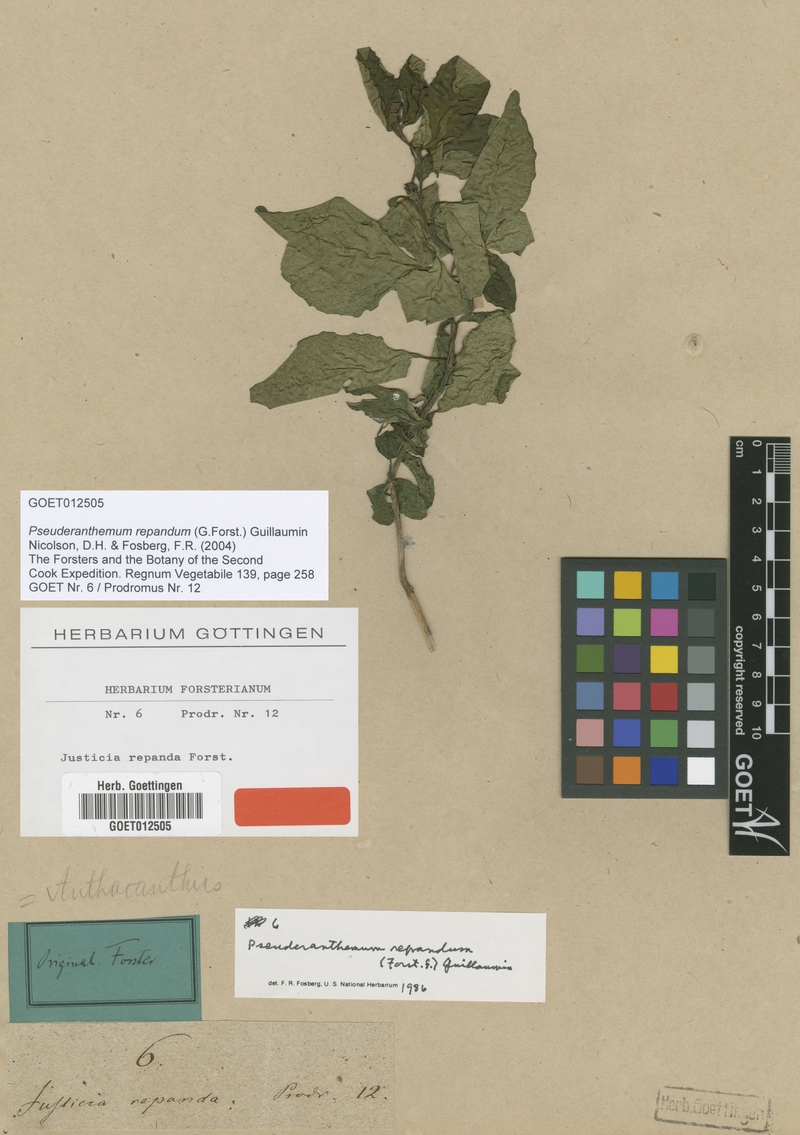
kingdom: Plantae
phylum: Tracheophyta
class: Magnoliopsida
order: Lamiales
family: Acanthaceae
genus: Pseuderanthemum
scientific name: Pseuderanthemum repandum
